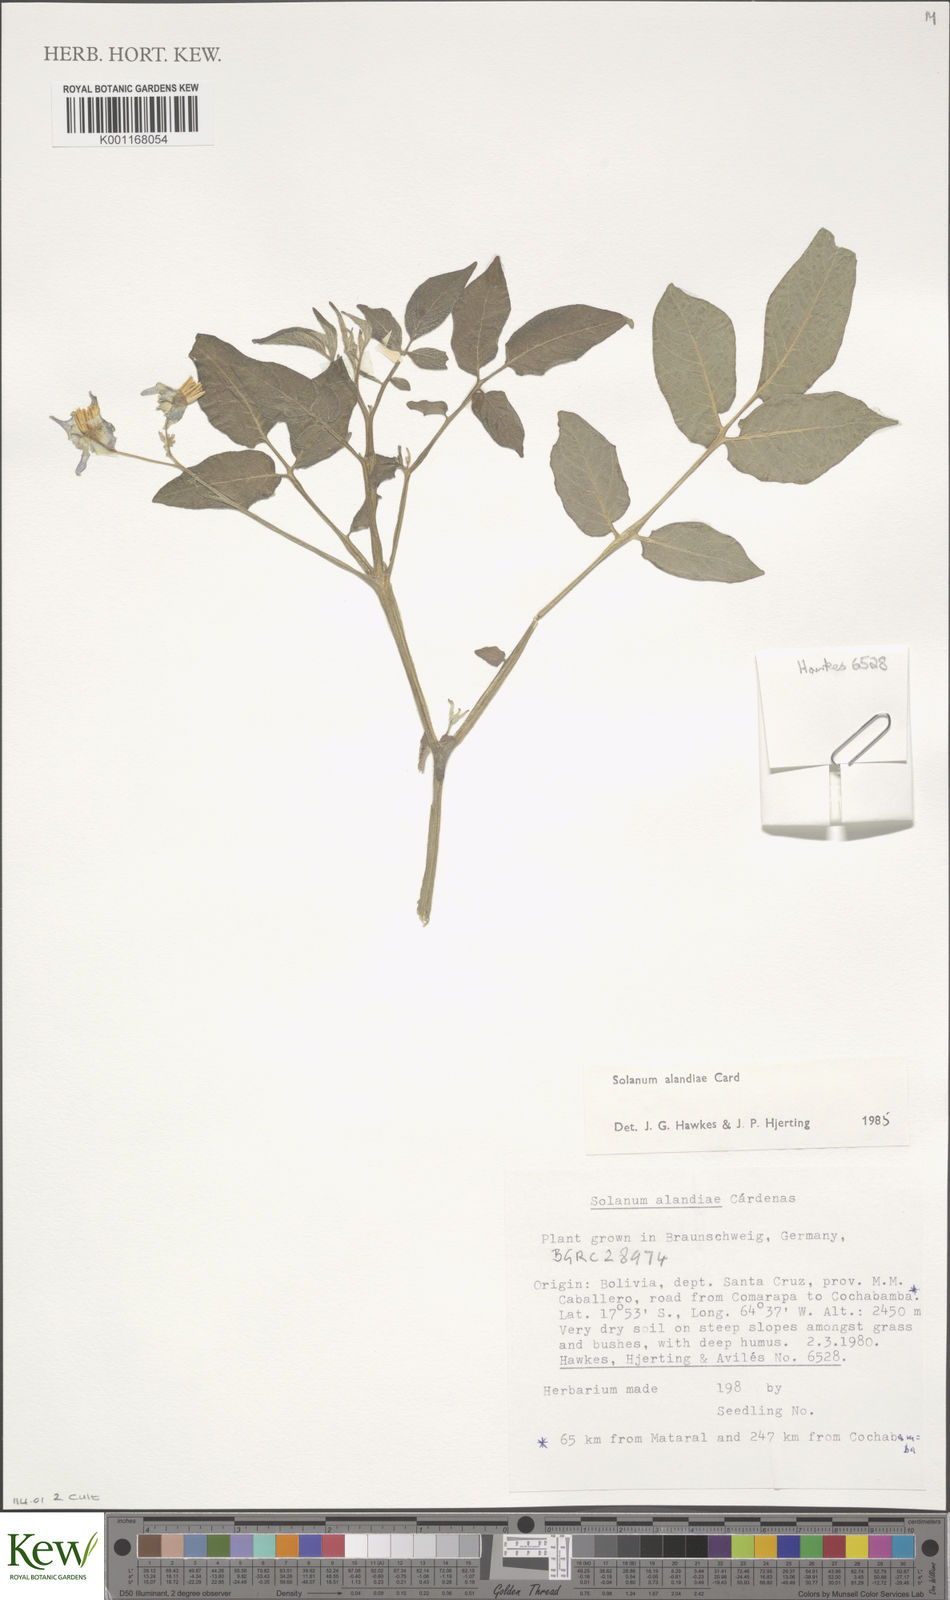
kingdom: Plantae
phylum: Tracheophyta
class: Magnoliopsida
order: Solanales
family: Solanaceae
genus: Solanum
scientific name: Solanum
